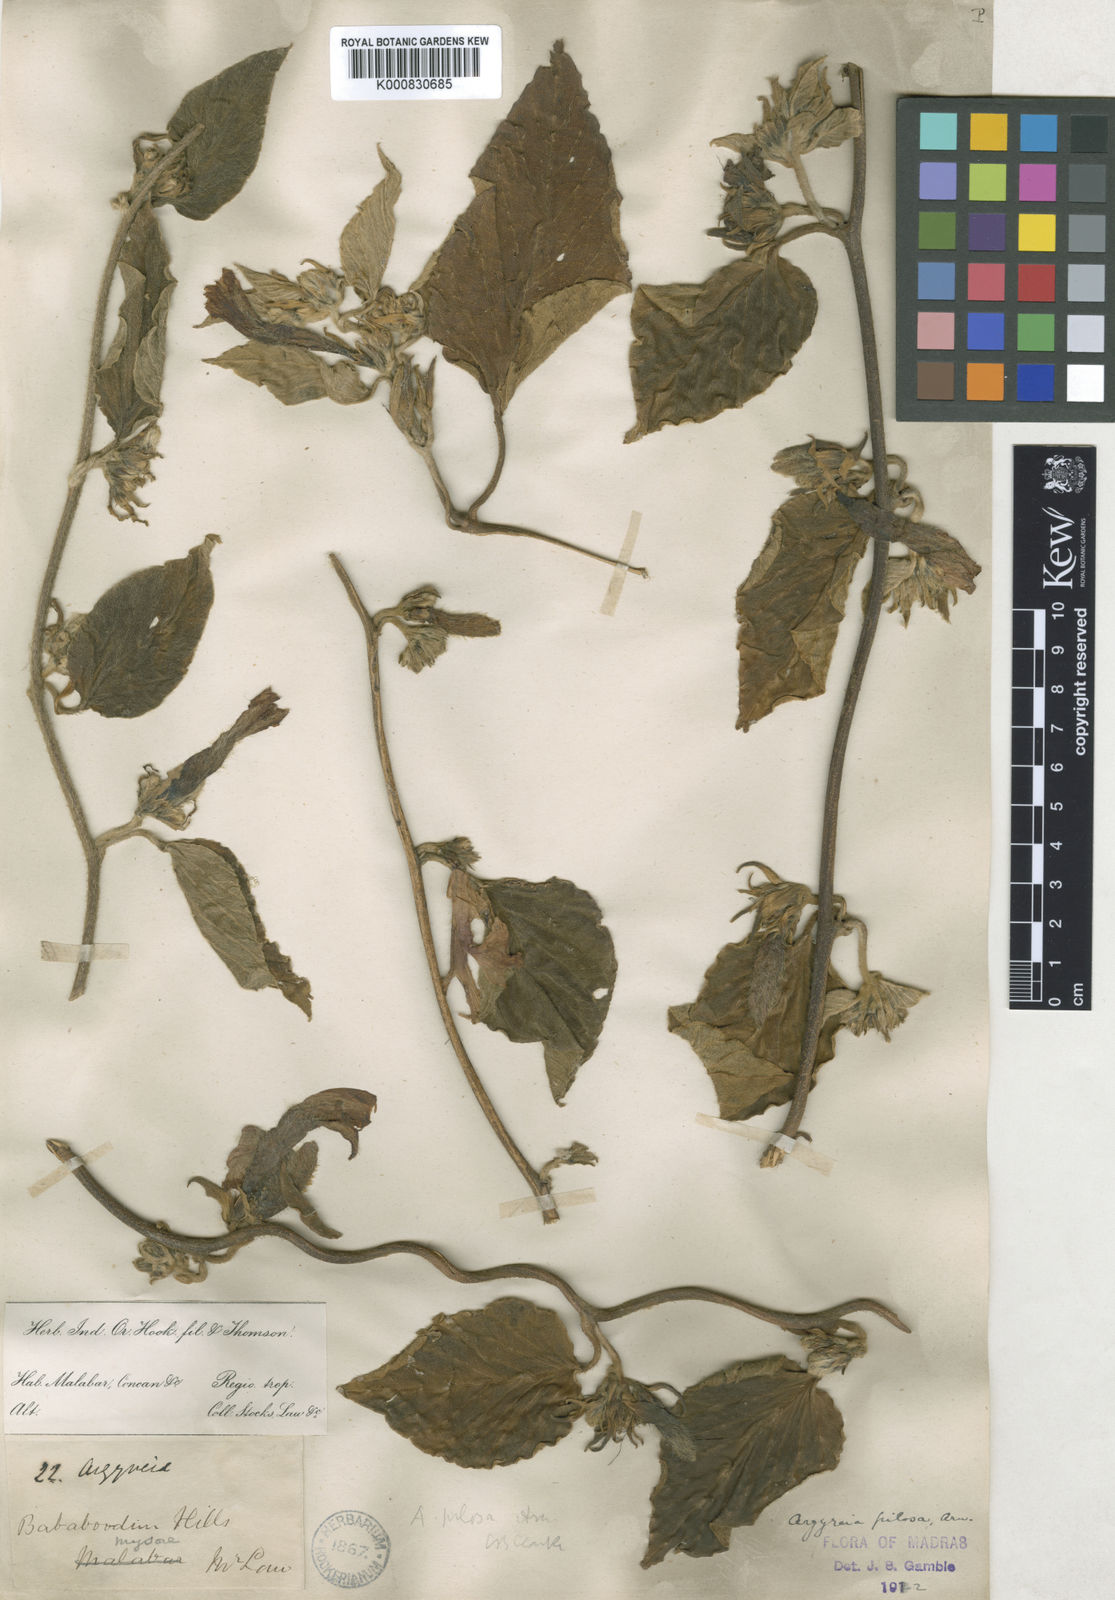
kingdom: Plantae
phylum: Tracheophyta
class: Magnoliopsida
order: Solanales
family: Convolvulaceae
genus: Argyreia
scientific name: Argyreia srinivasanii
